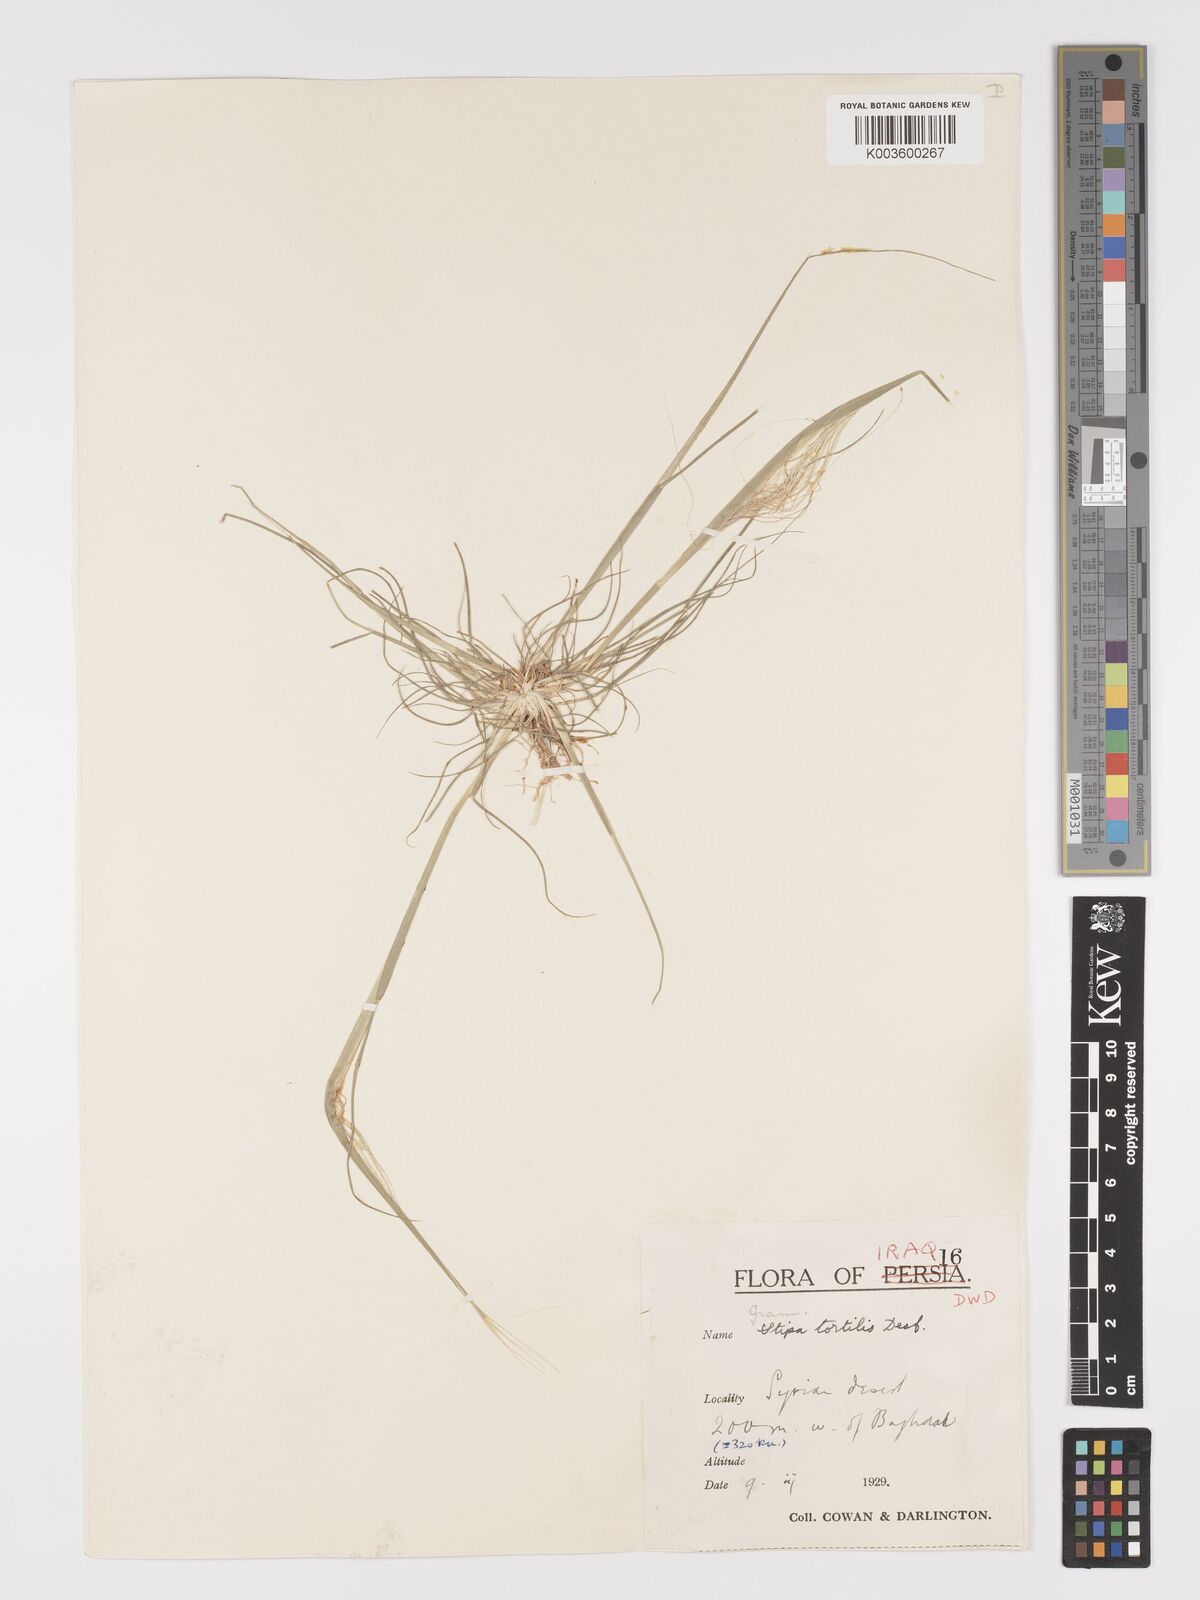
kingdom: Plantae
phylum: Tracheophyta
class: Liliopsida
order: Poales
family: Poaceae
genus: Stipellula
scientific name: Stipellula capensis
